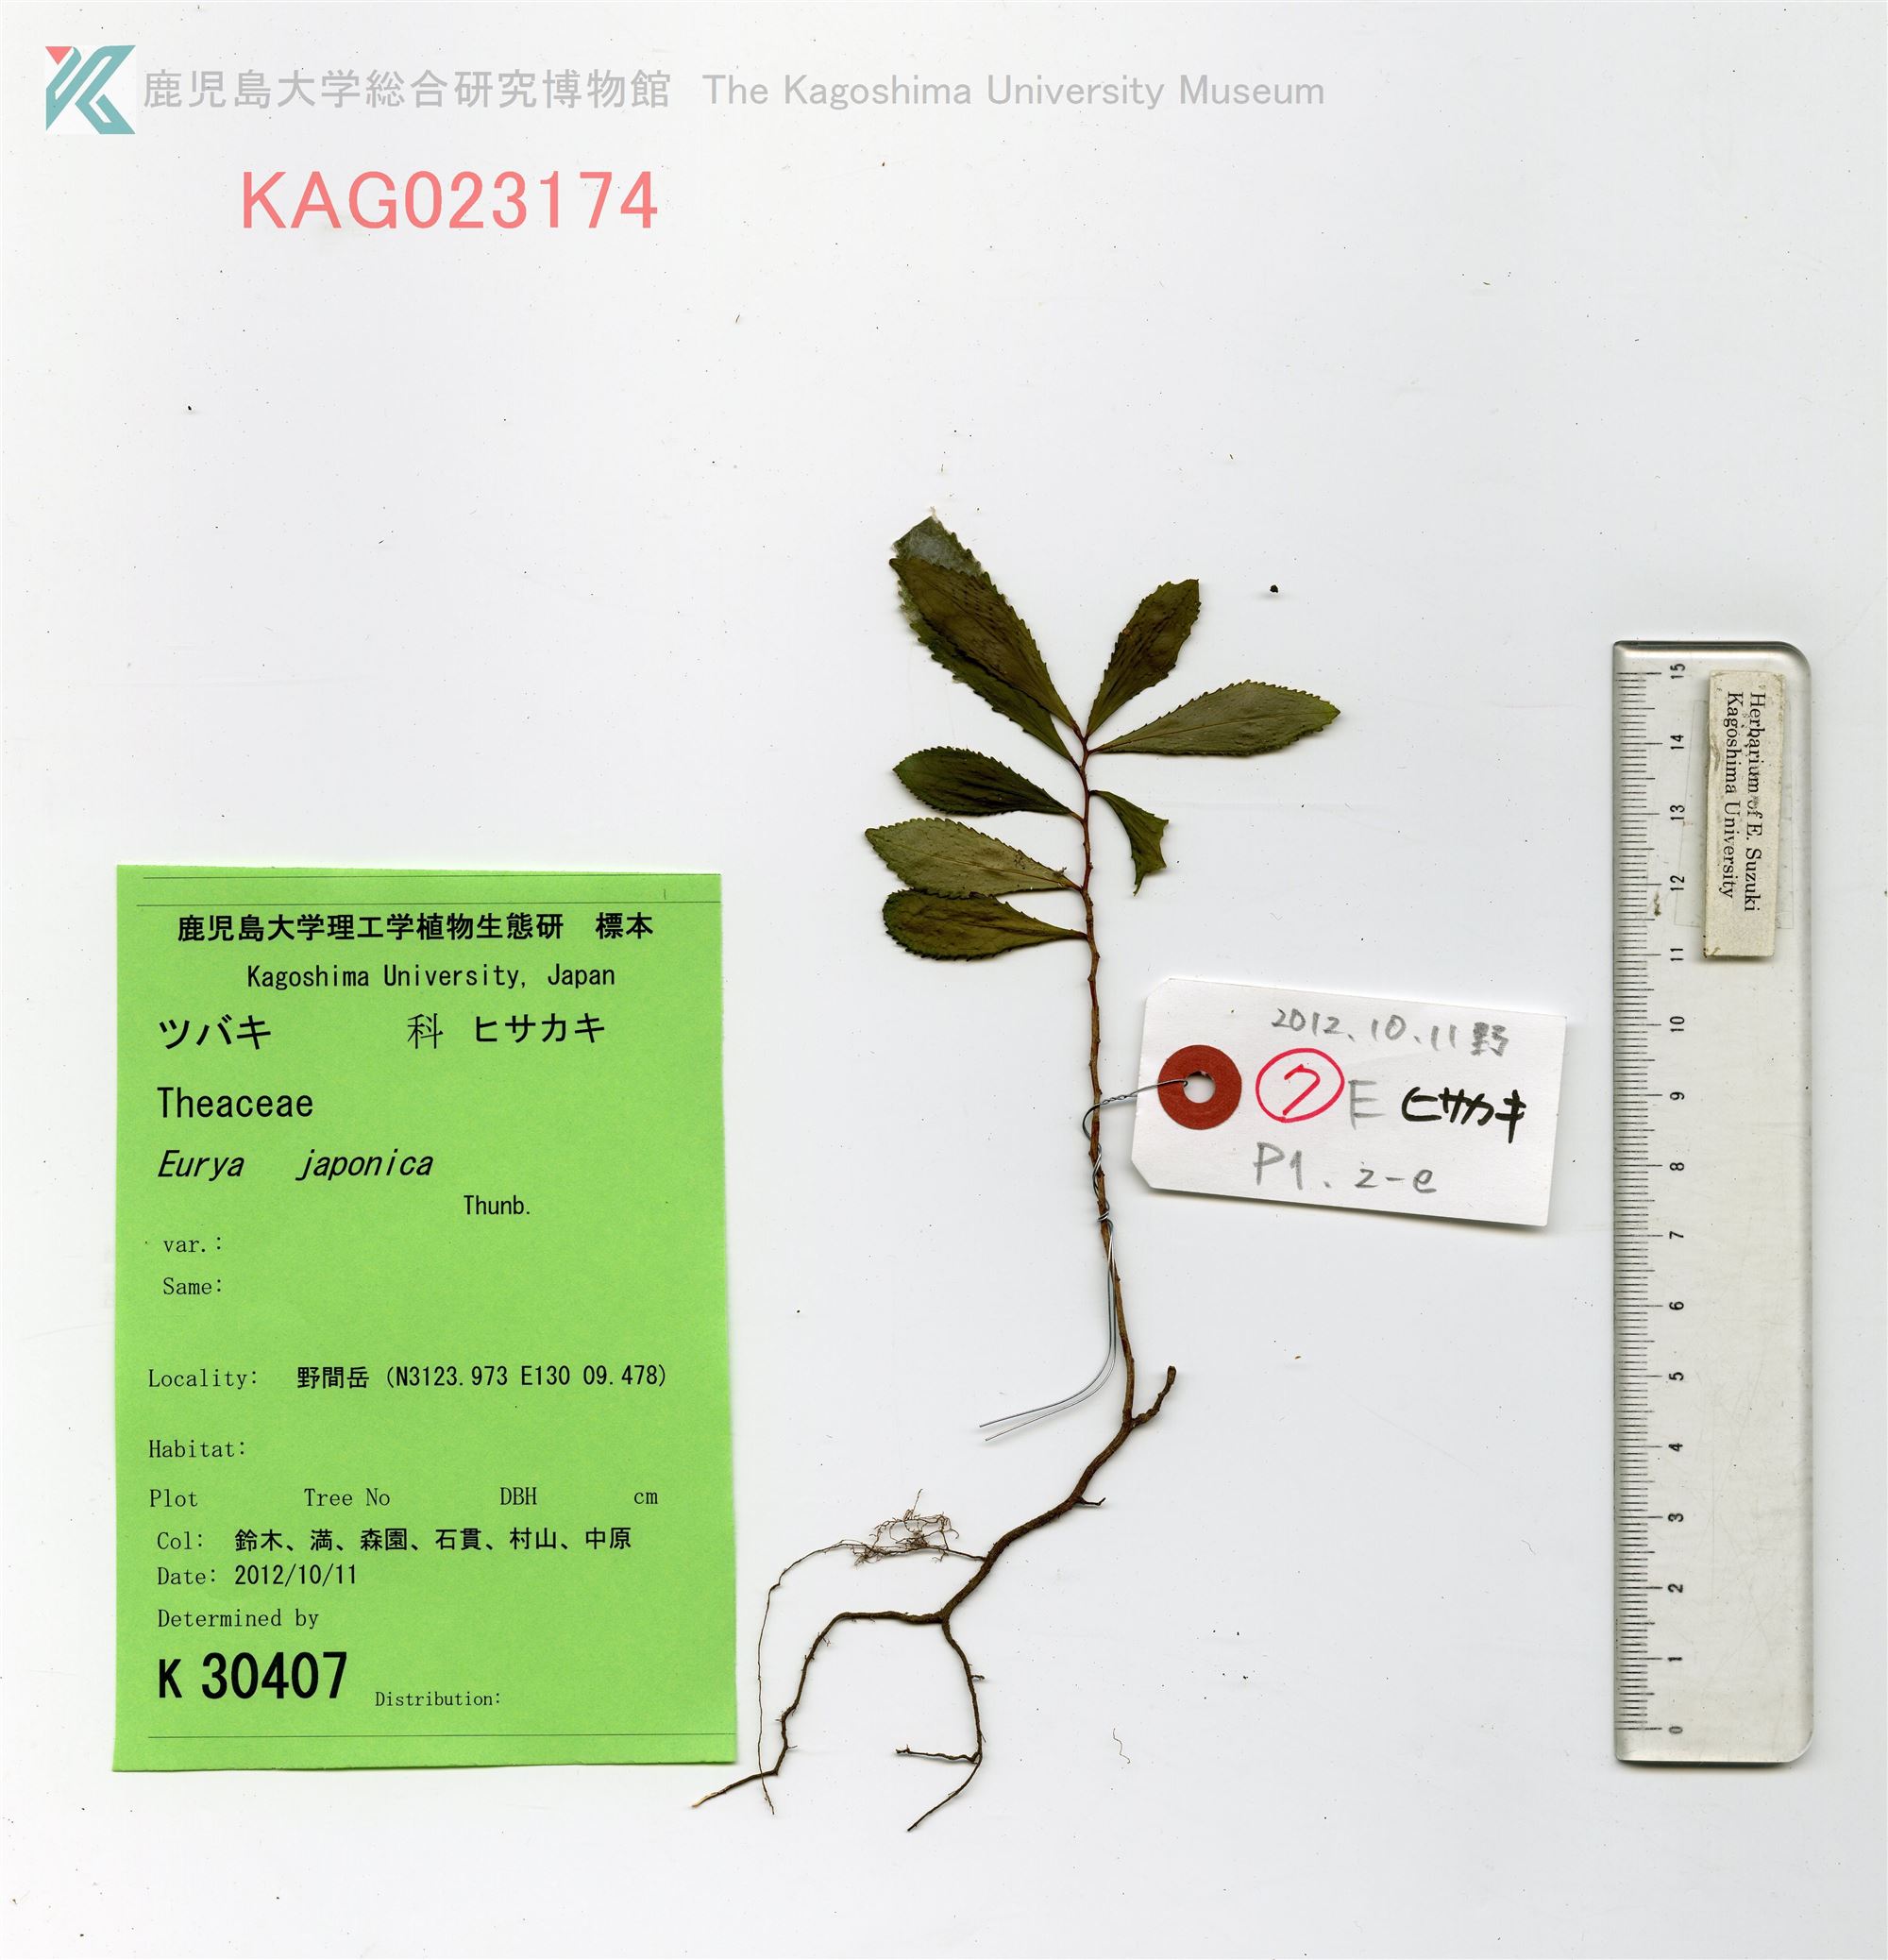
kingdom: Plantae
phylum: Tracheophyta
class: Magnoliopsida
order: Ericales
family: Pentaphylacaceae
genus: Eurya
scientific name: Eurya japonica
